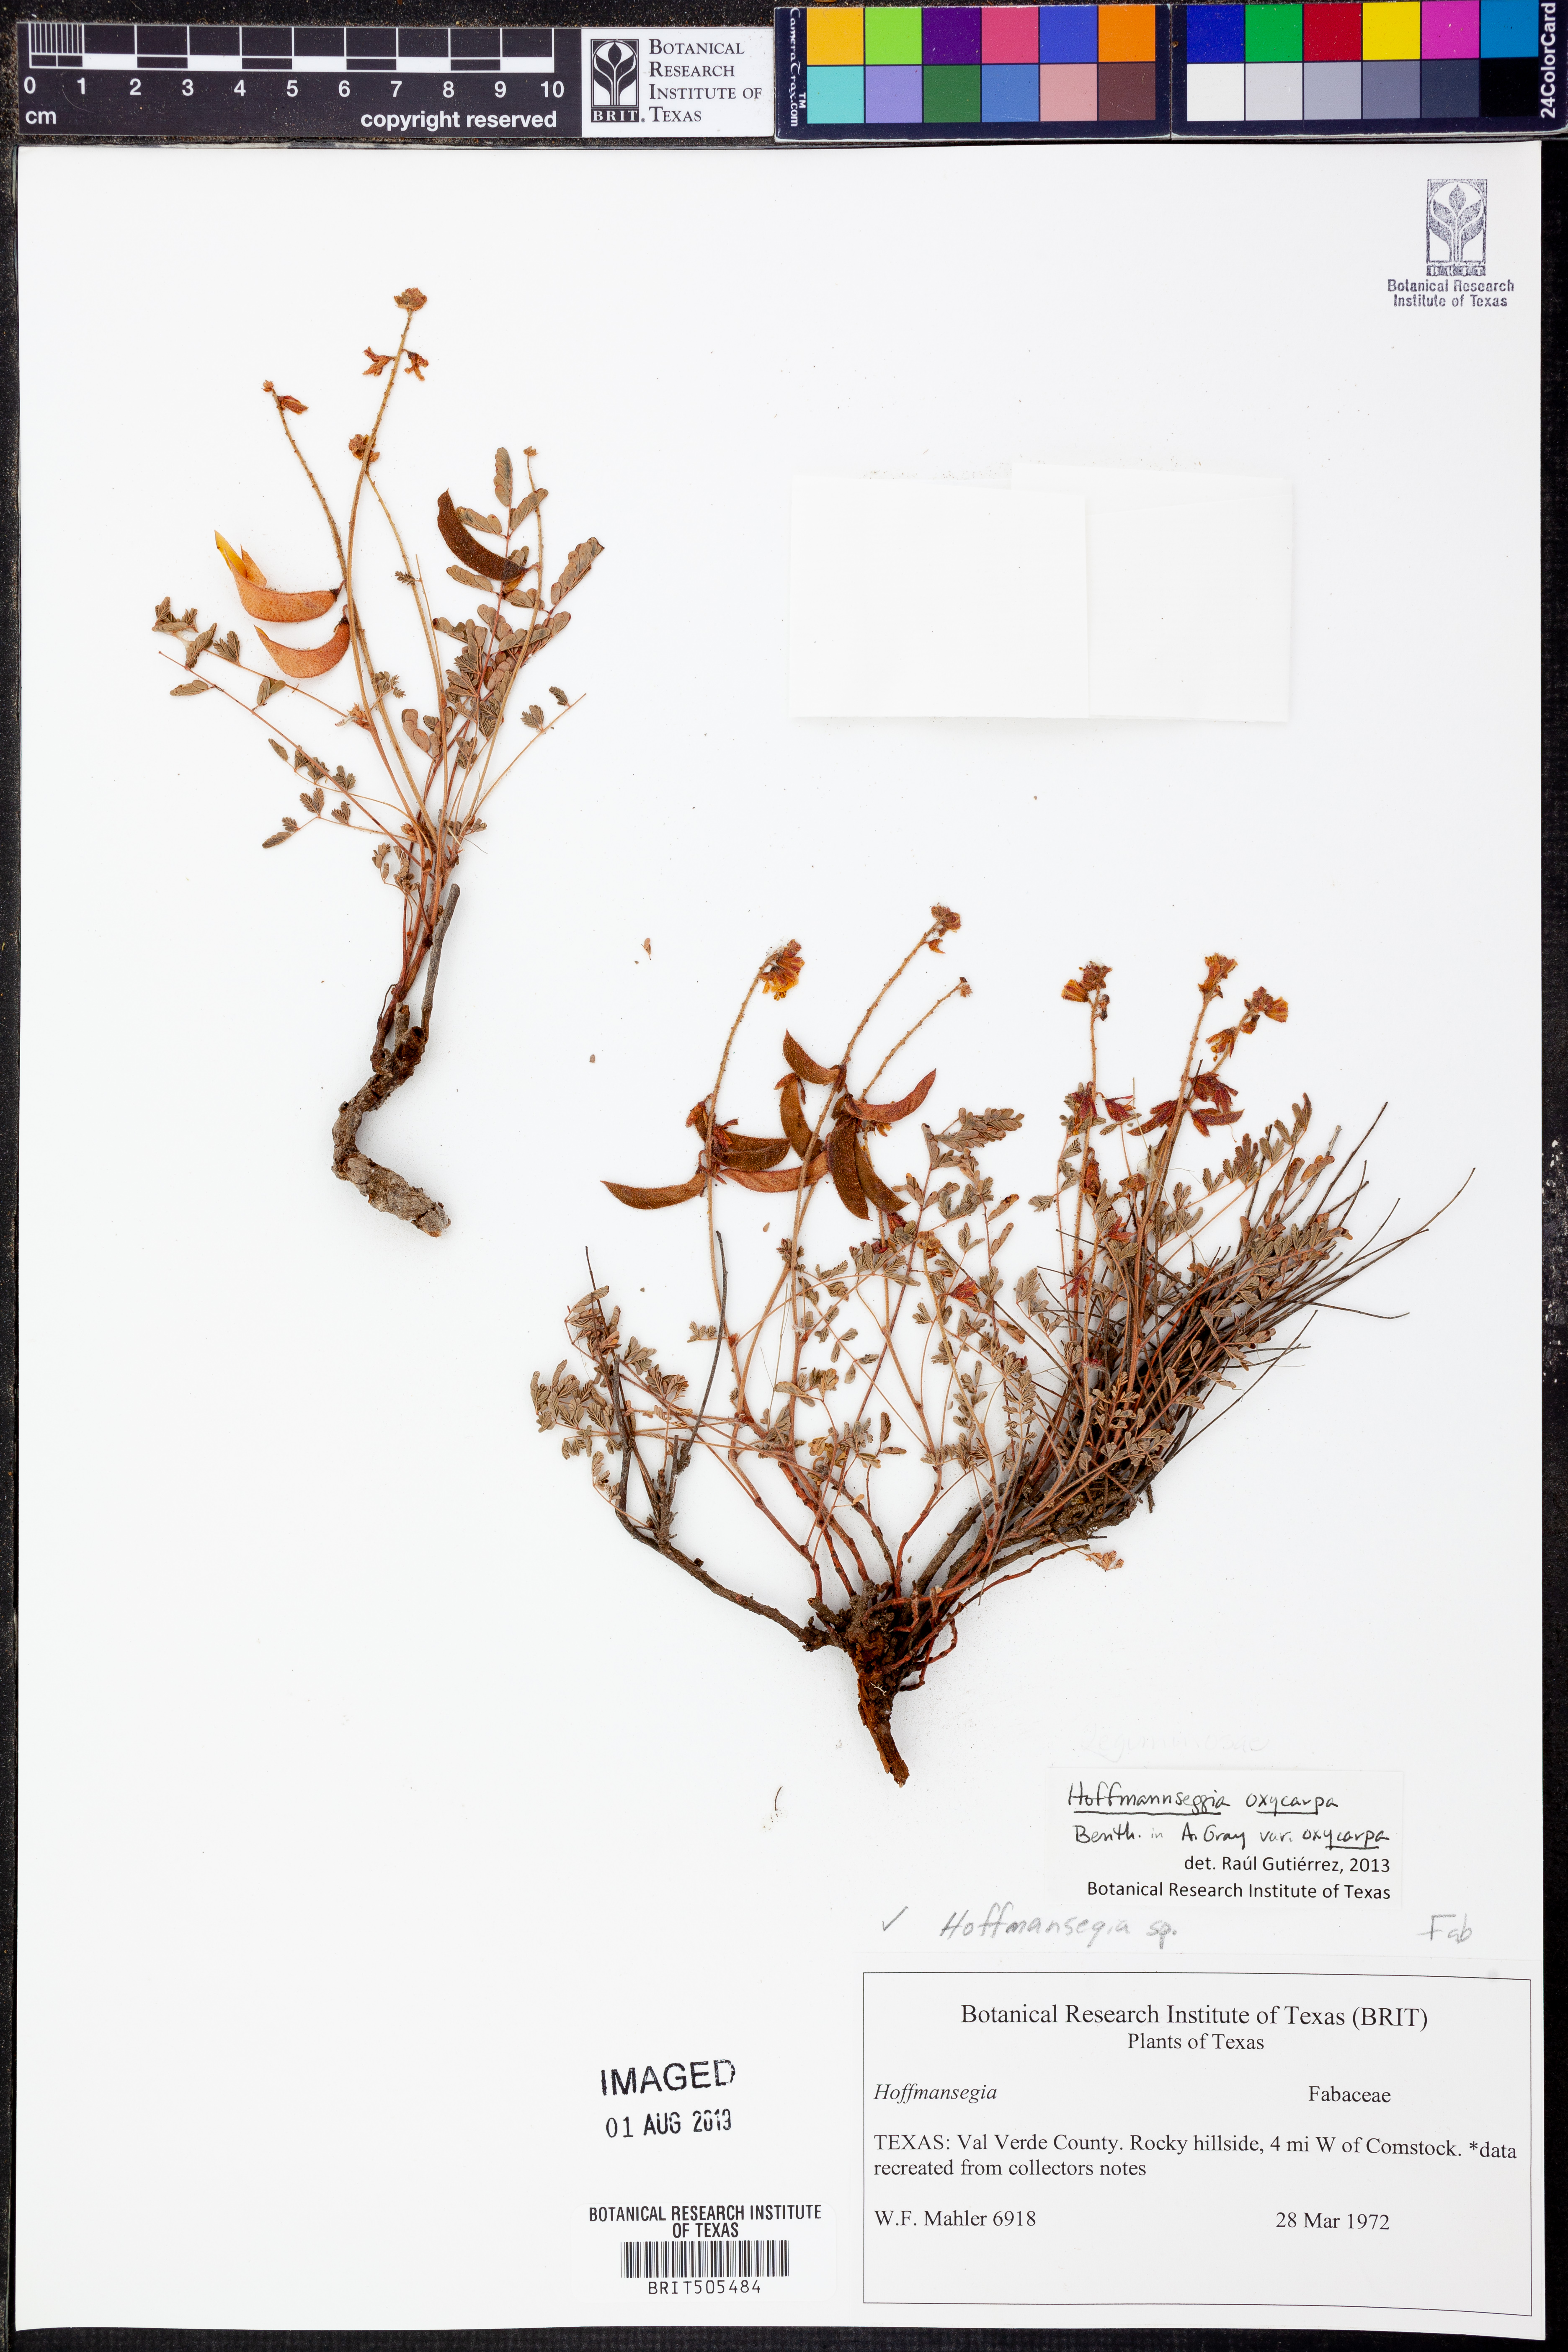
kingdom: Plantae
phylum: Tracheophyta
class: Magnoliopsida
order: Fabales
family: Fabaceae
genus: Hoffmannseggia
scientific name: Hoffmannseggia oxycarpa
